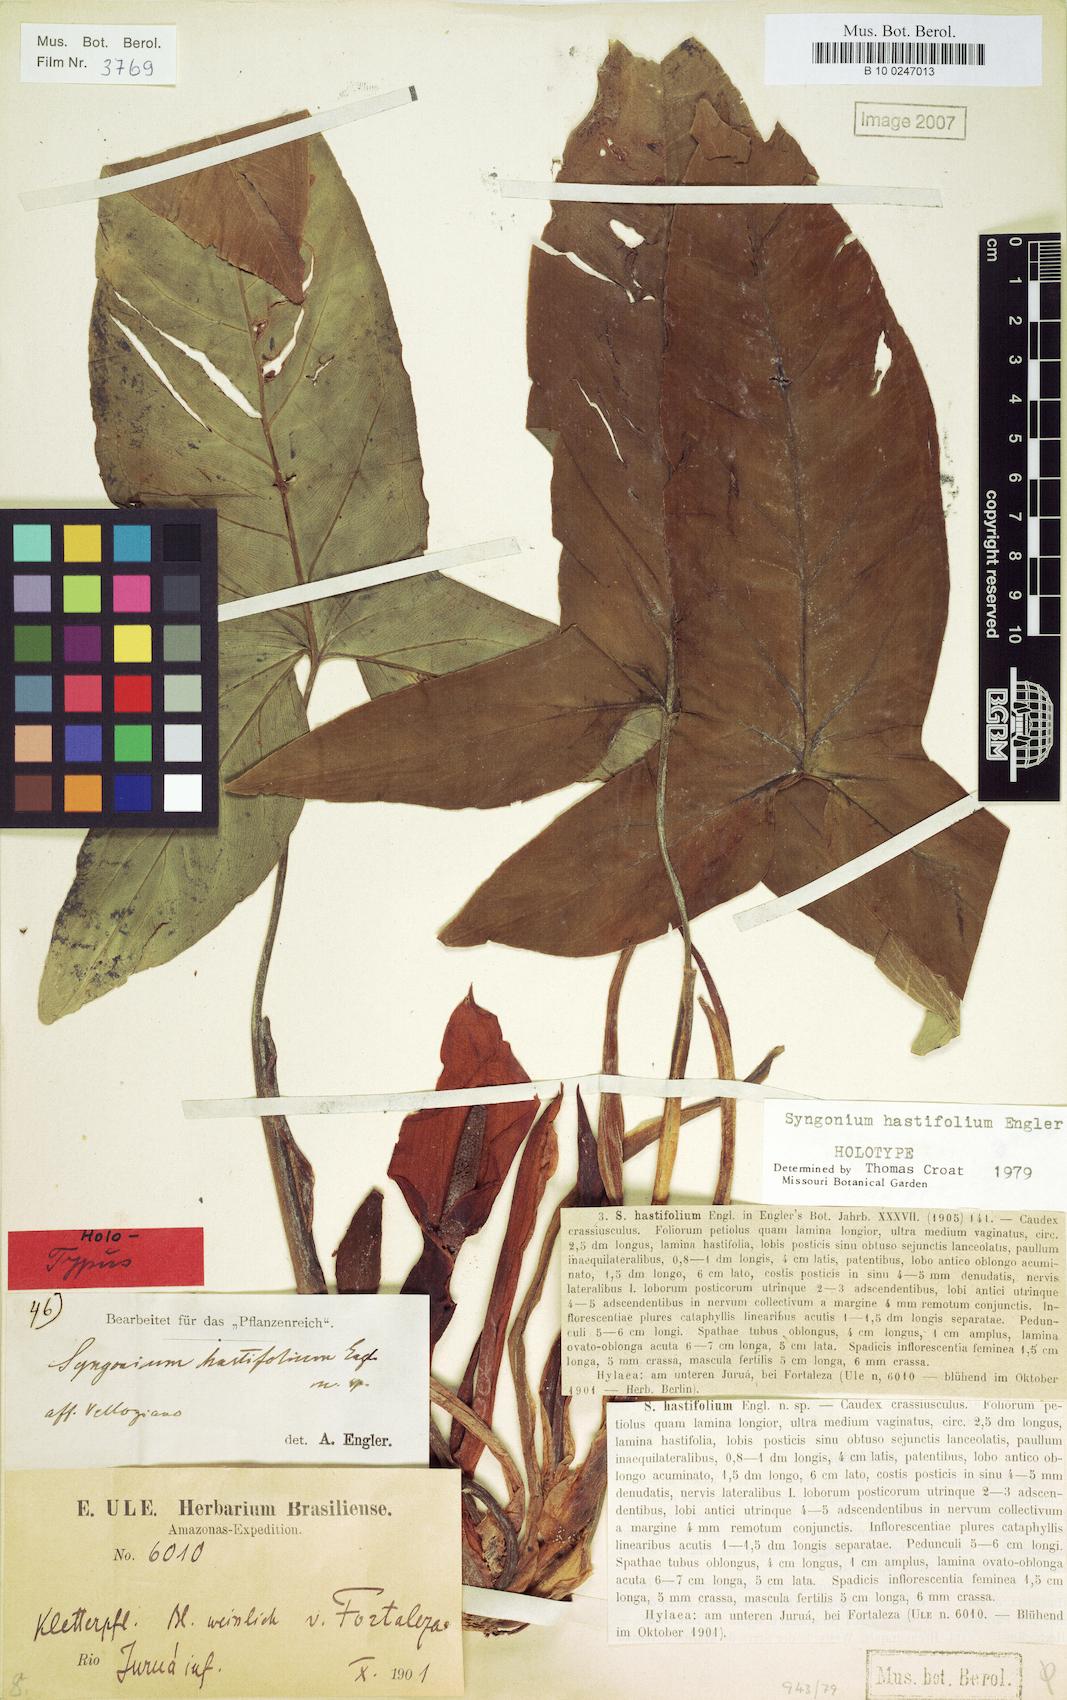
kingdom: Plantae
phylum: Tracheophyta
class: Liliopsida
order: Alismatales
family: Araceae
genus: Syngonium
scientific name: Syngonium hastifolium
